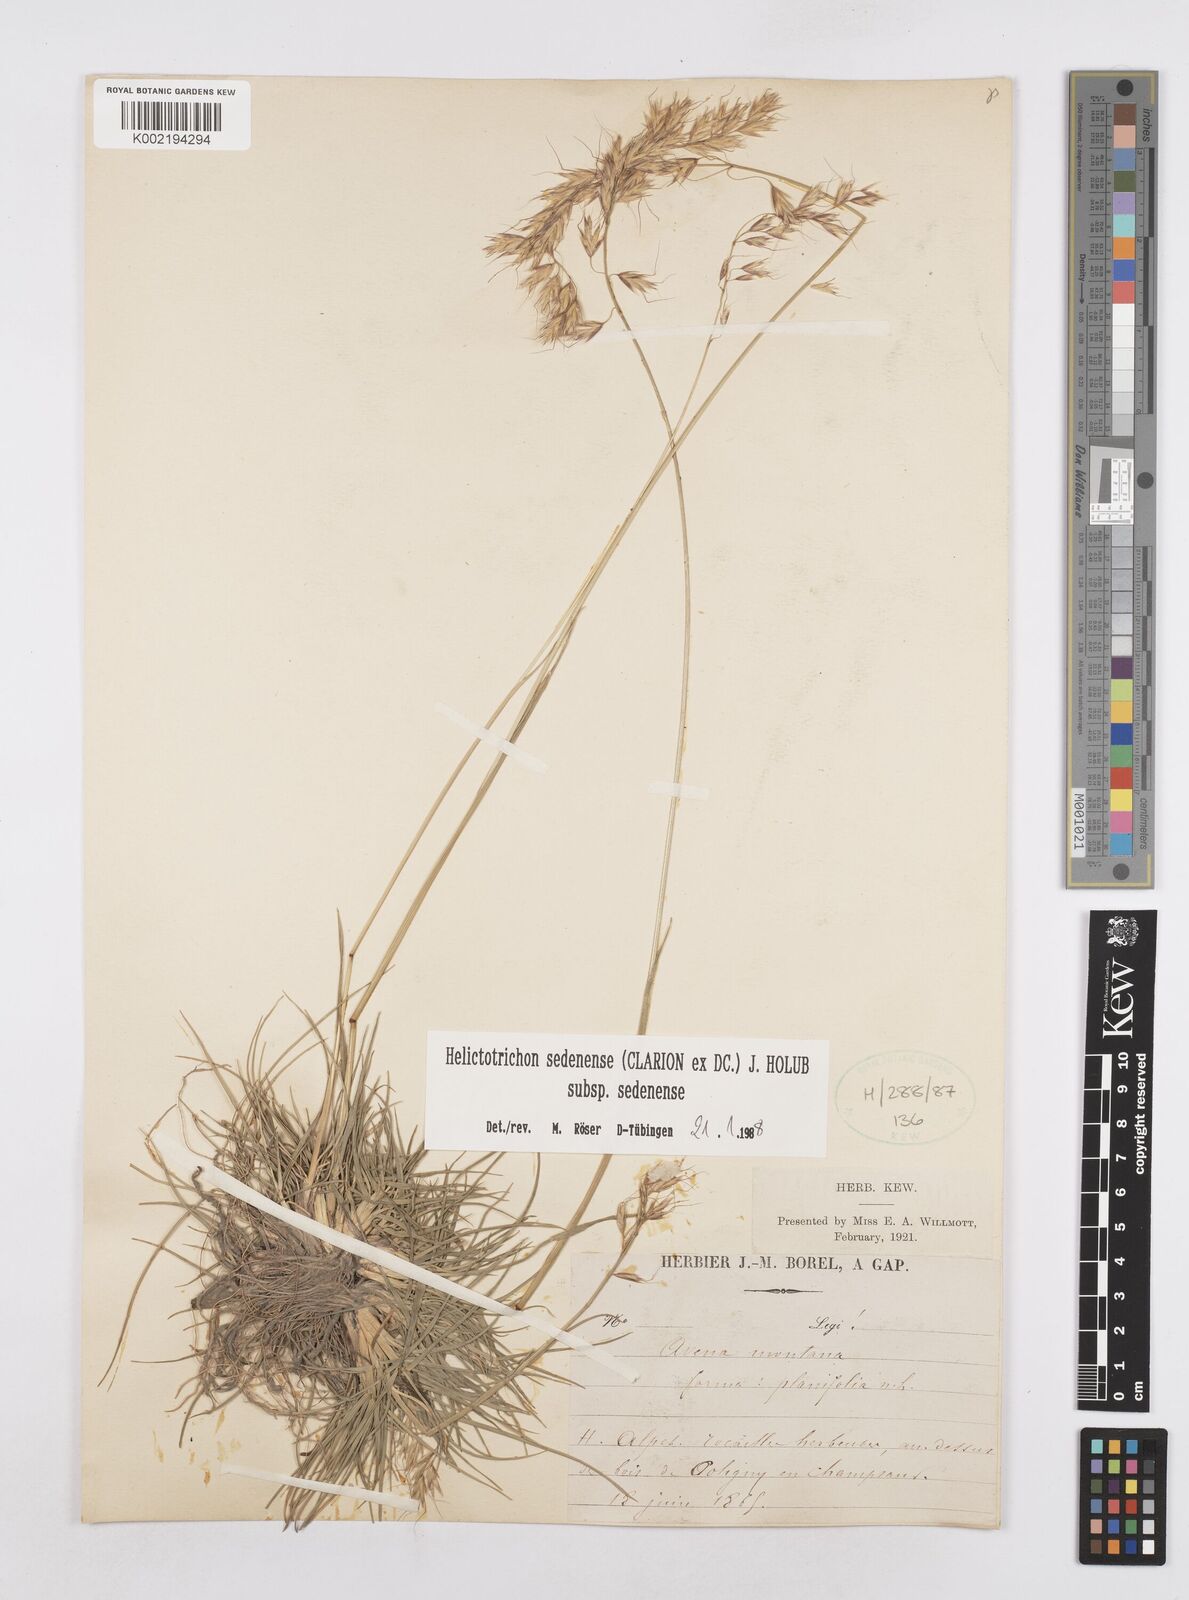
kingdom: Plantae
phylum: Tracheophyta
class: Liliopsida
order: Poales
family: Poaceae
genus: Helictotrichon
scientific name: Helictotrichon sedenense
